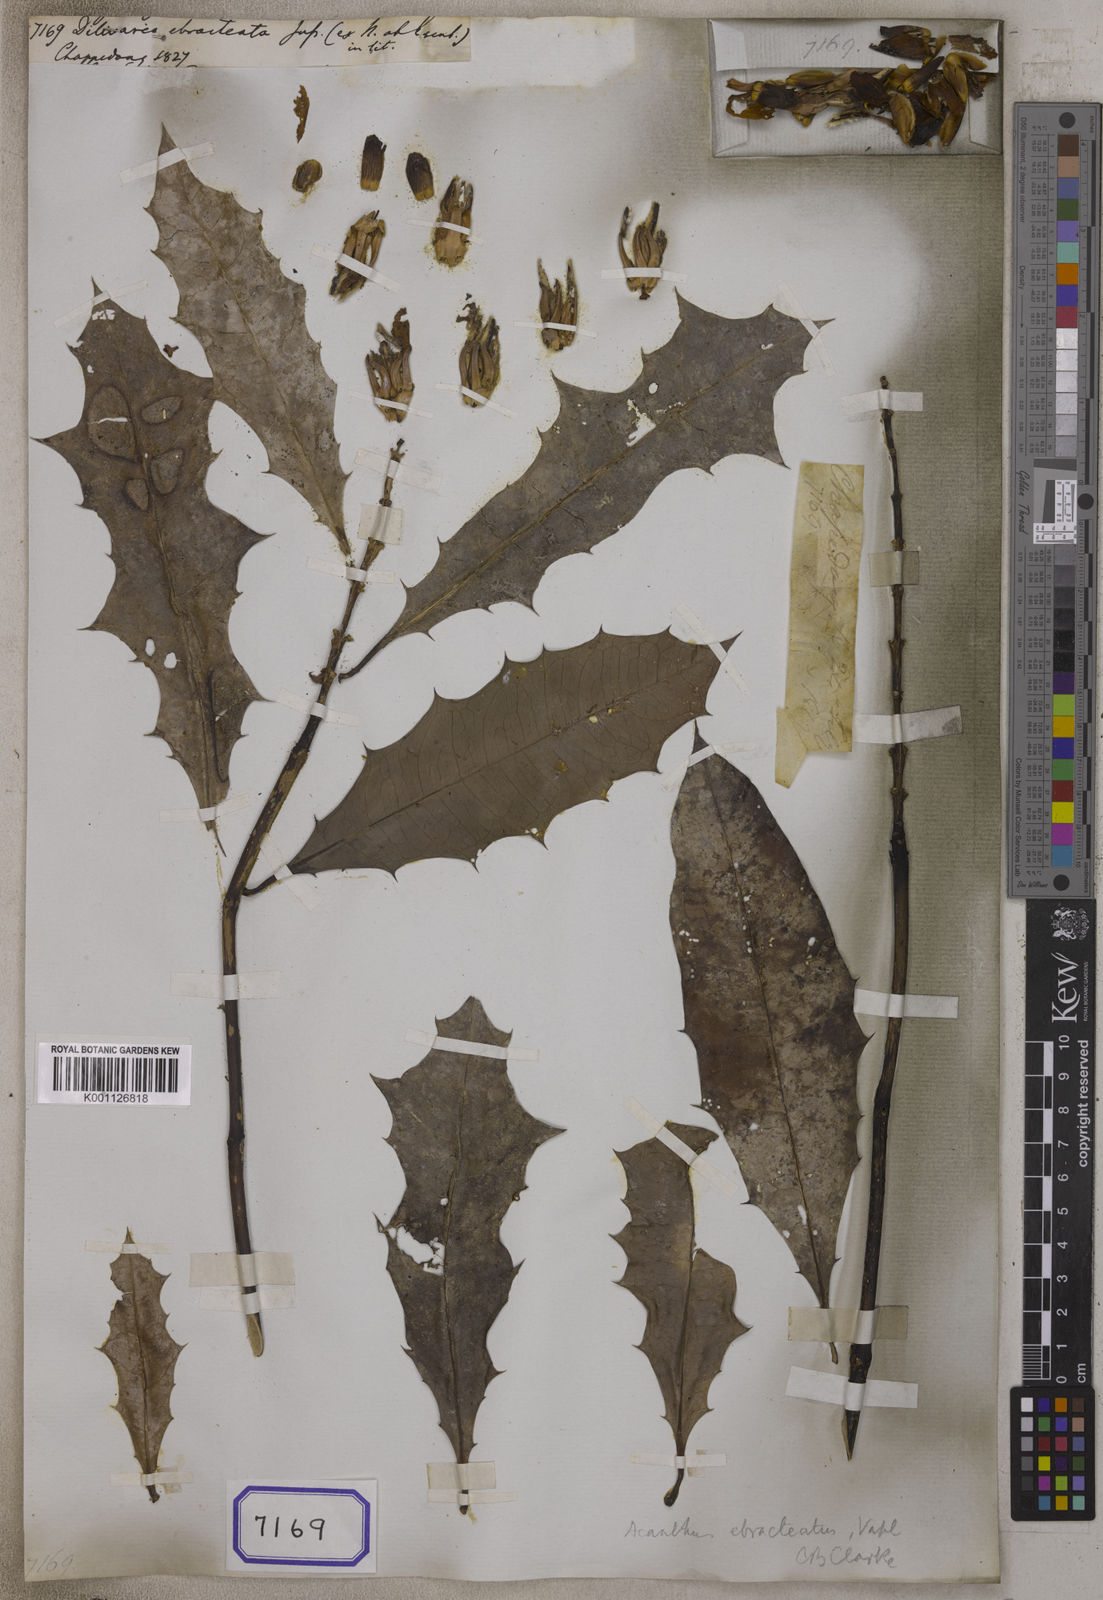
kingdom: Plantae
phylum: Tracheophyta
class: Magnoliopsida
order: Lamiales
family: Acanthaceae
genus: Acanthus
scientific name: Acanthus ebracteatus
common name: Acanthus
